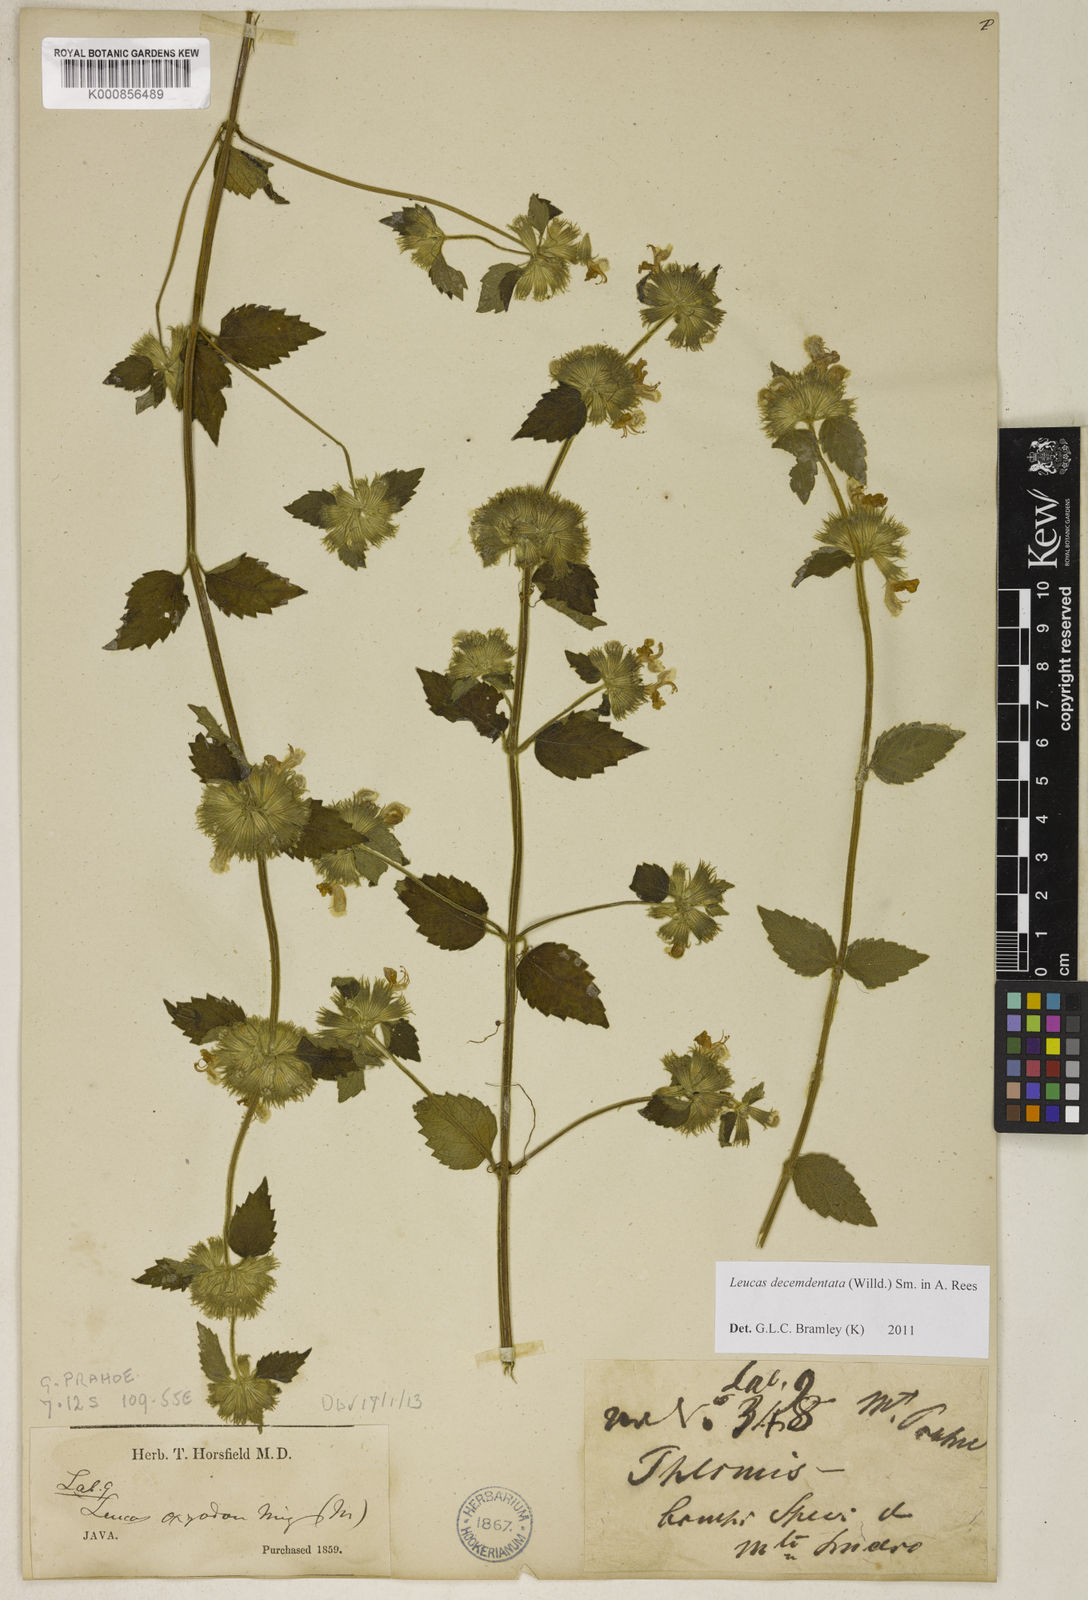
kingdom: Plantae
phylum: Tracheophyta
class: Magnoliopsida
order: Lamiales
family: Lamiaceae
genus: Leucas
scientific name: Leucas decemdentata
